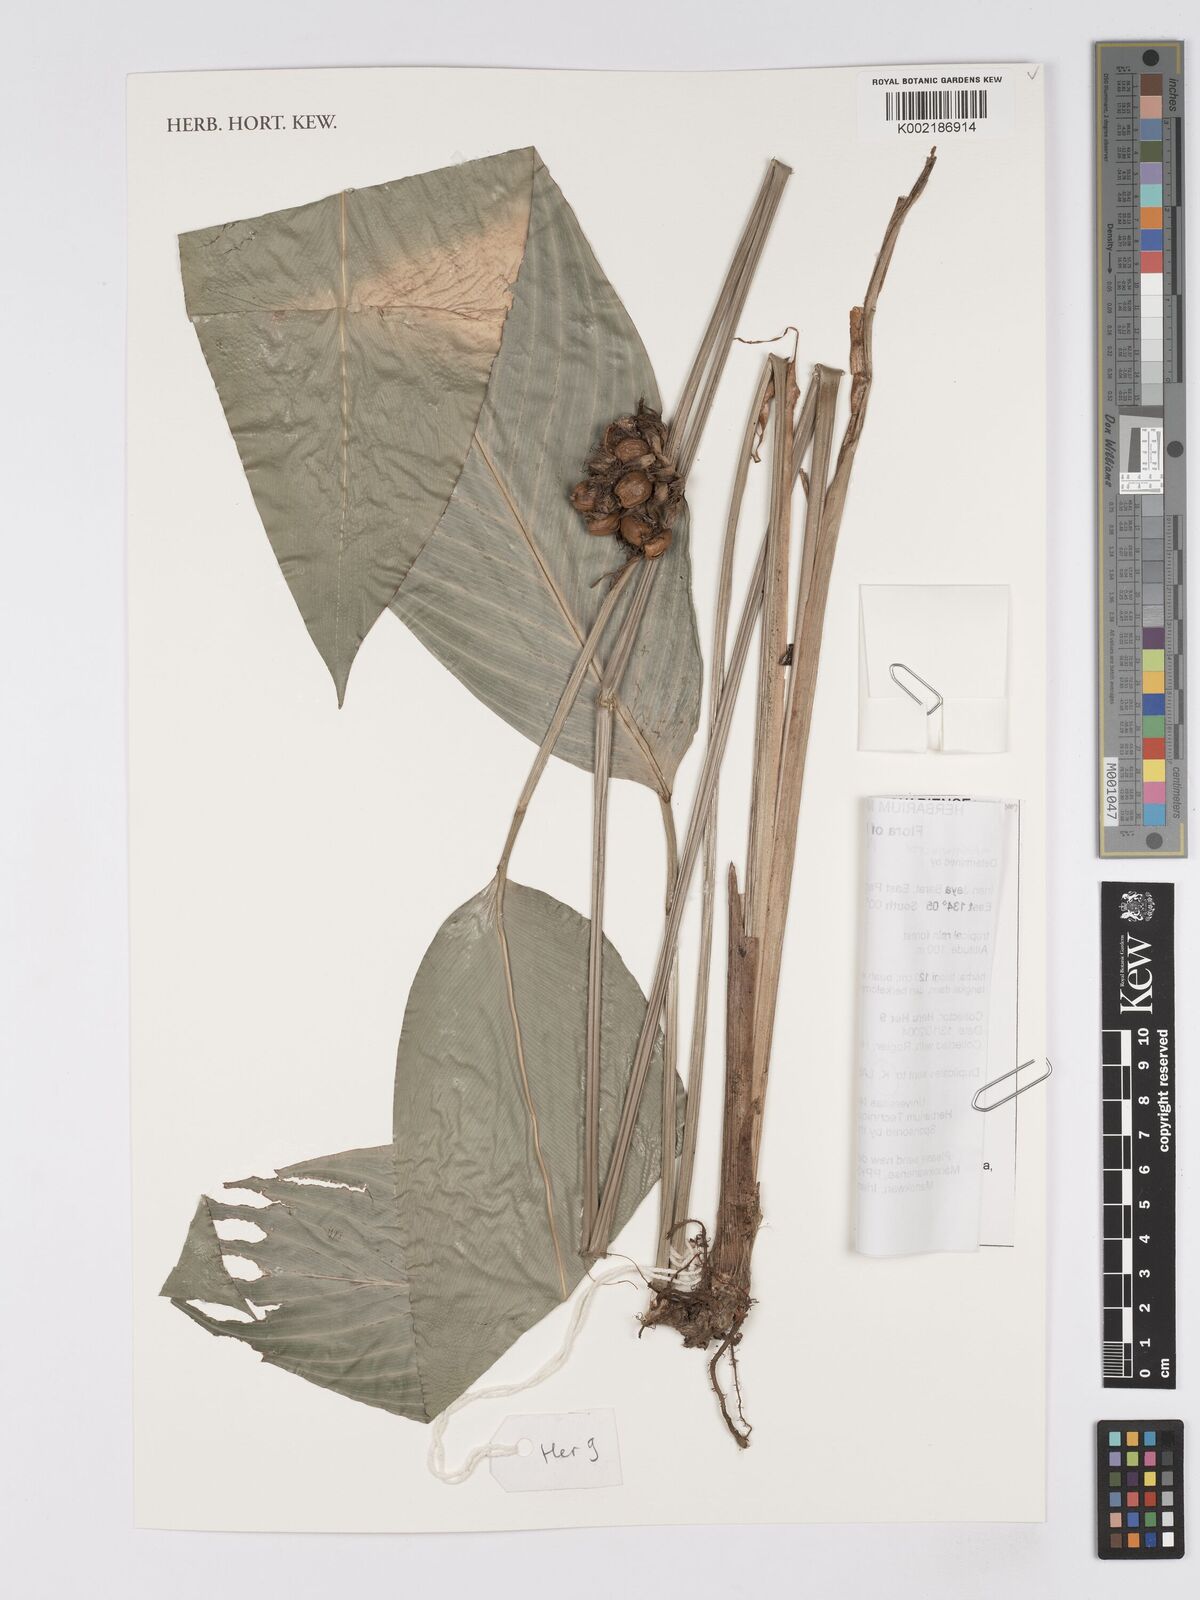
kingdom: Plantae
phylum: Tracheophyta
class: Liliopsida
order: Zingiberales
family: Marantaceae
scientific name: Marantaceae
